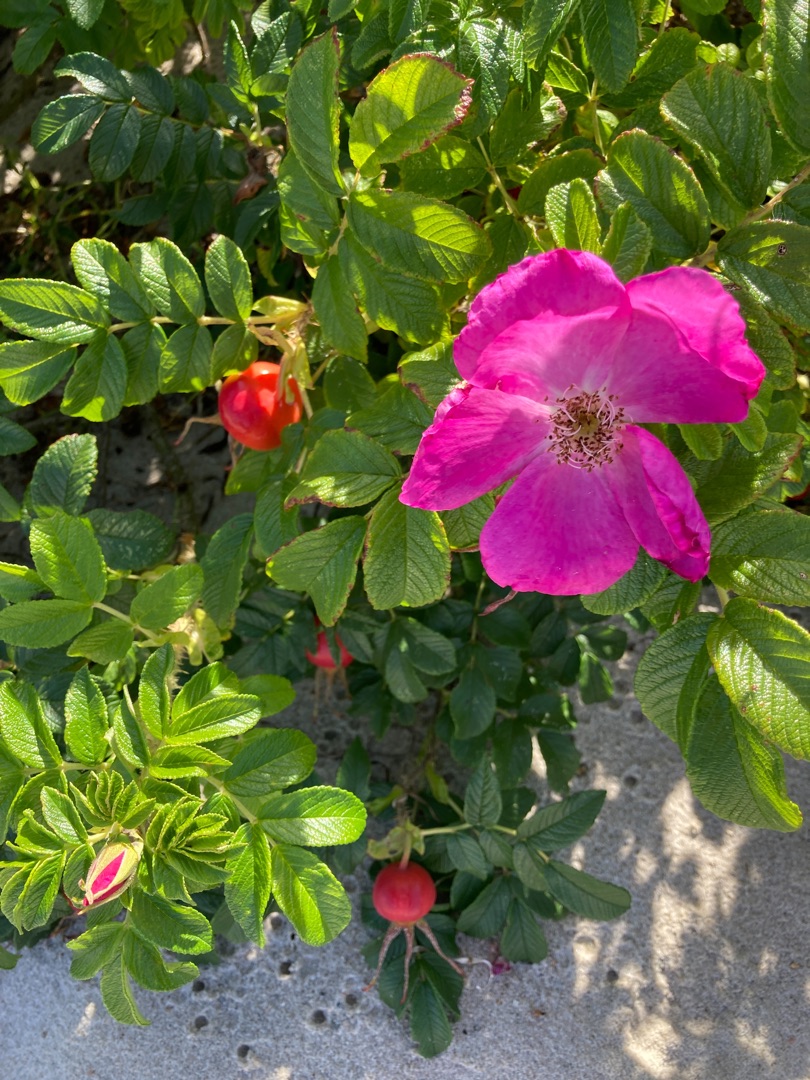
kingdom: Plantae
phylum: Tracheophyta
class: Magnoliopsida
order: Rosales
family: Rosaceae
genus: Rosa
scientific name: Rosa rugosa
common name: Rynket rose
